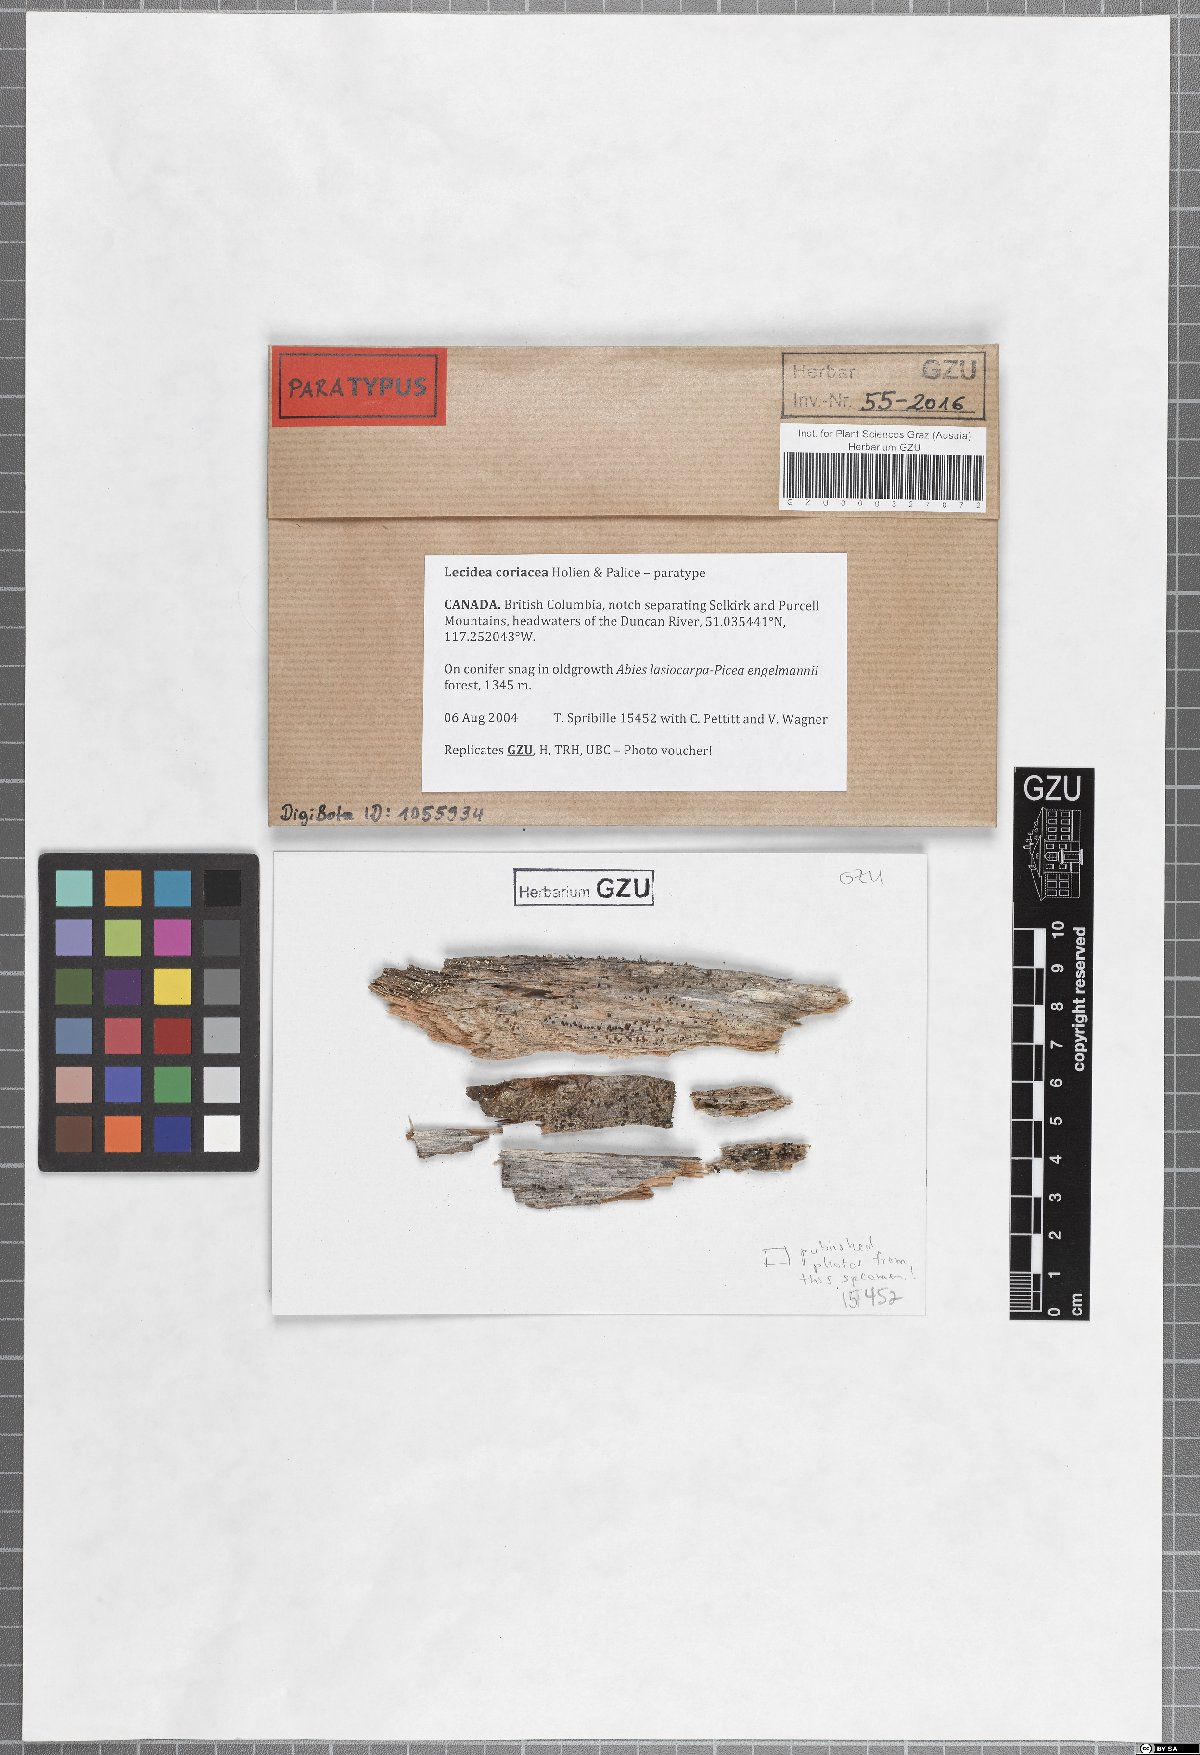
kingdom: Fungi
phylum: Ascomycota
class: Lecanoromycetes
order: Lecideales
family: Lecideaceae
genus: Lecidea
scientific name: Lecidea coriacea
